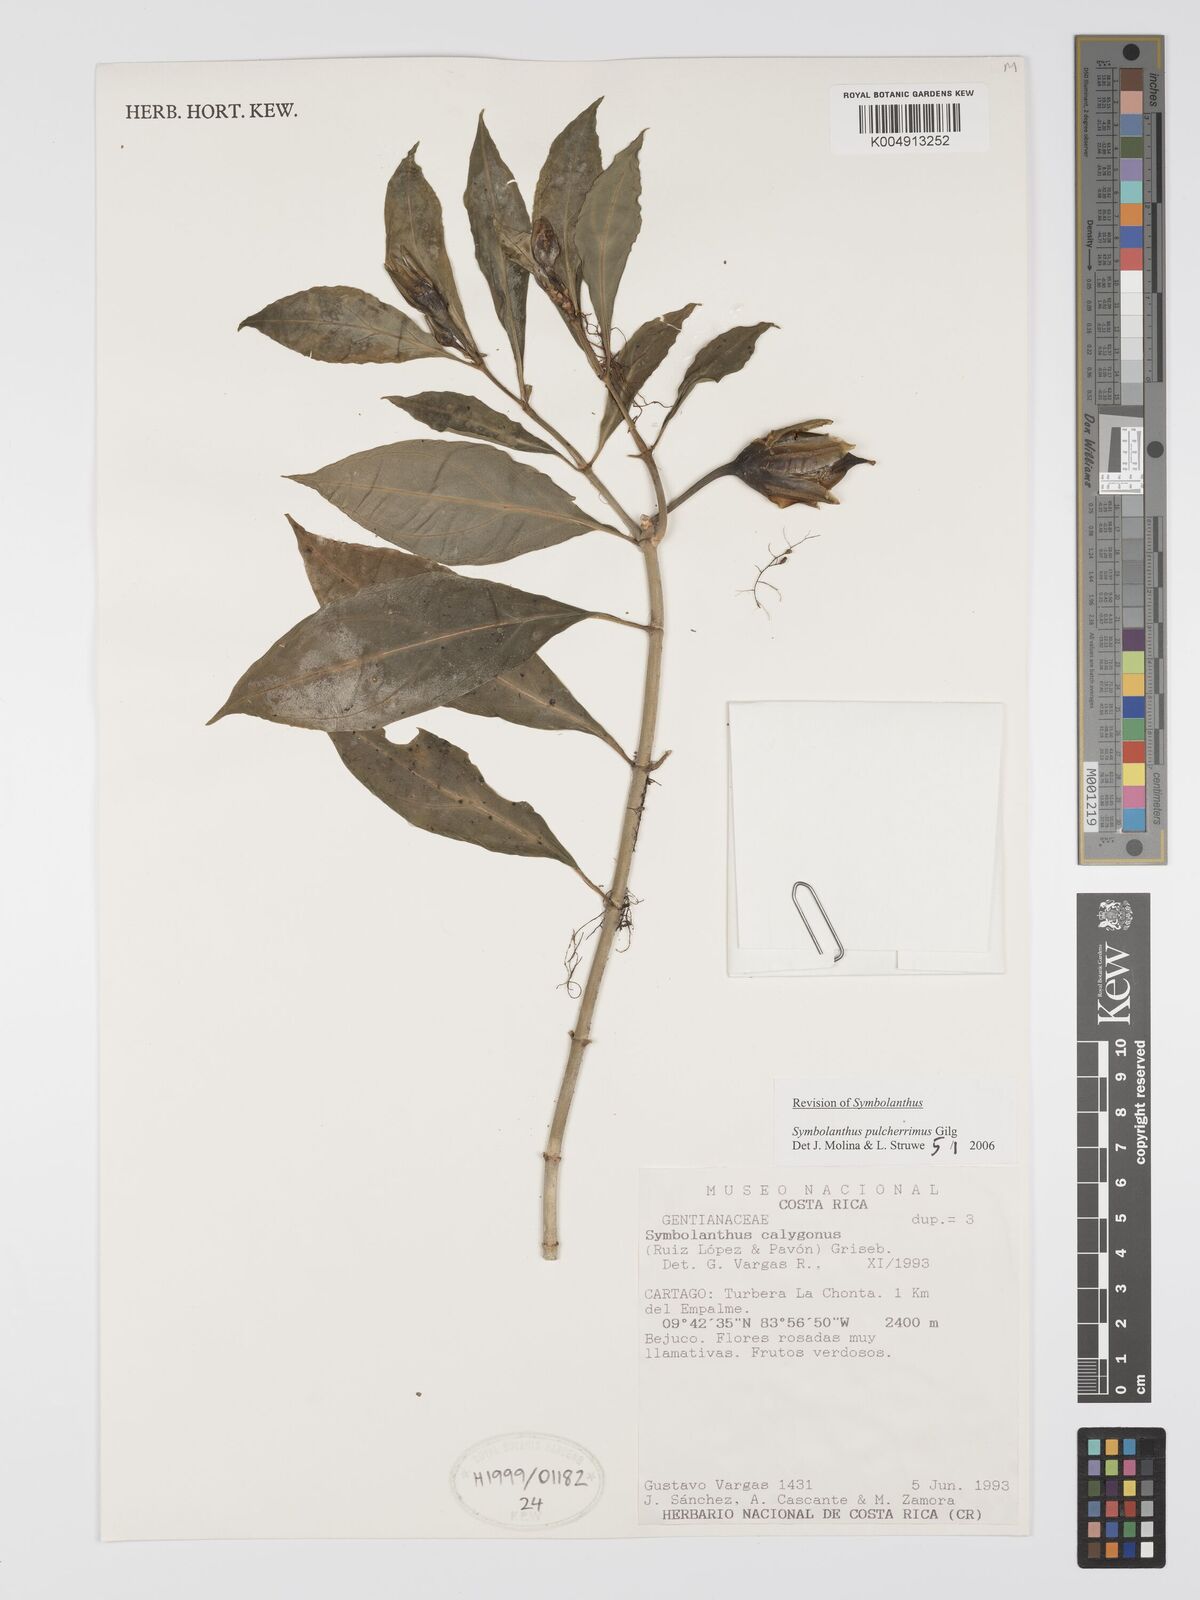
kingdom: Plantae
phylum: Tracheophyta
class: Magnoliopsida
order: Gentianales
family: Gentianaceae
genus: Symbolanthus
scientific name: Symbolanthus pulcherrimus
